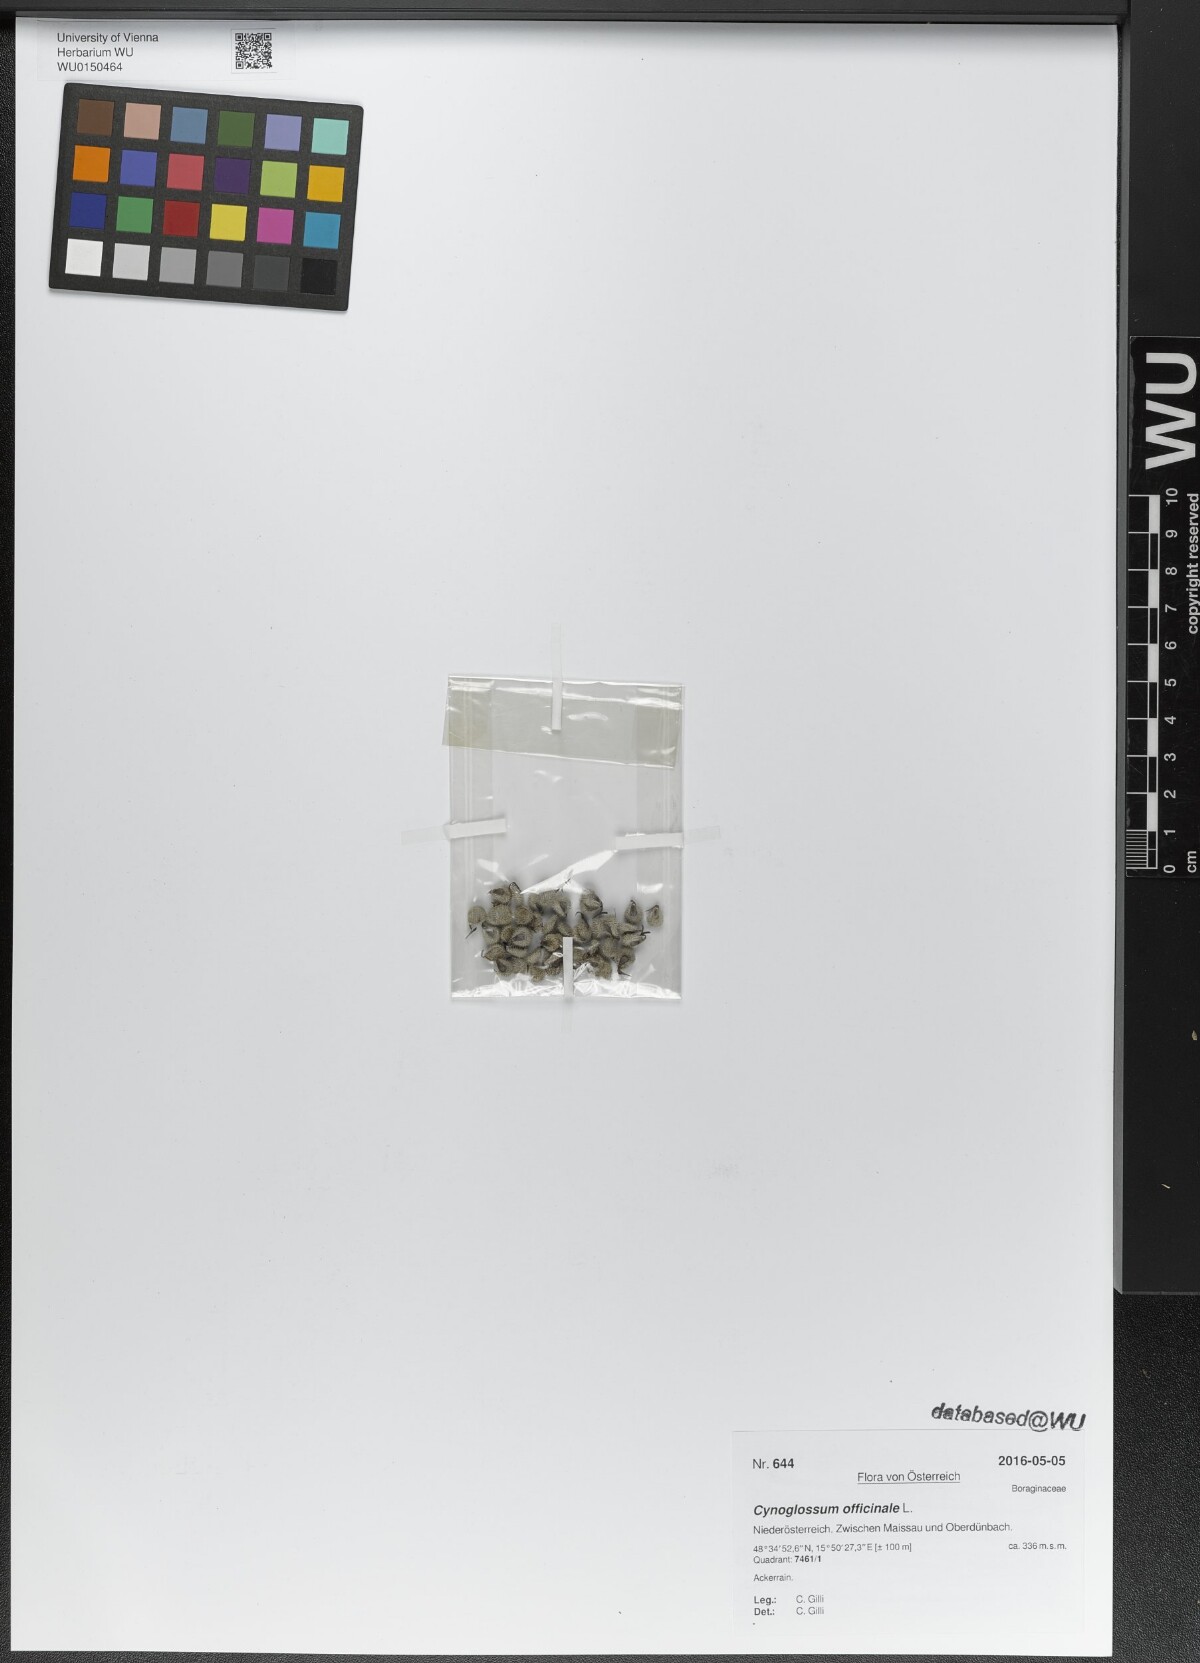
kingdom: Plantae
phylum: Tracheophyta
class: Magnoliopsida
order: Boraginales
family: Boraginaceae
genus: Cynoglossum
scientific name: Cynoglossum officinale
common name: Hound's-tongue
